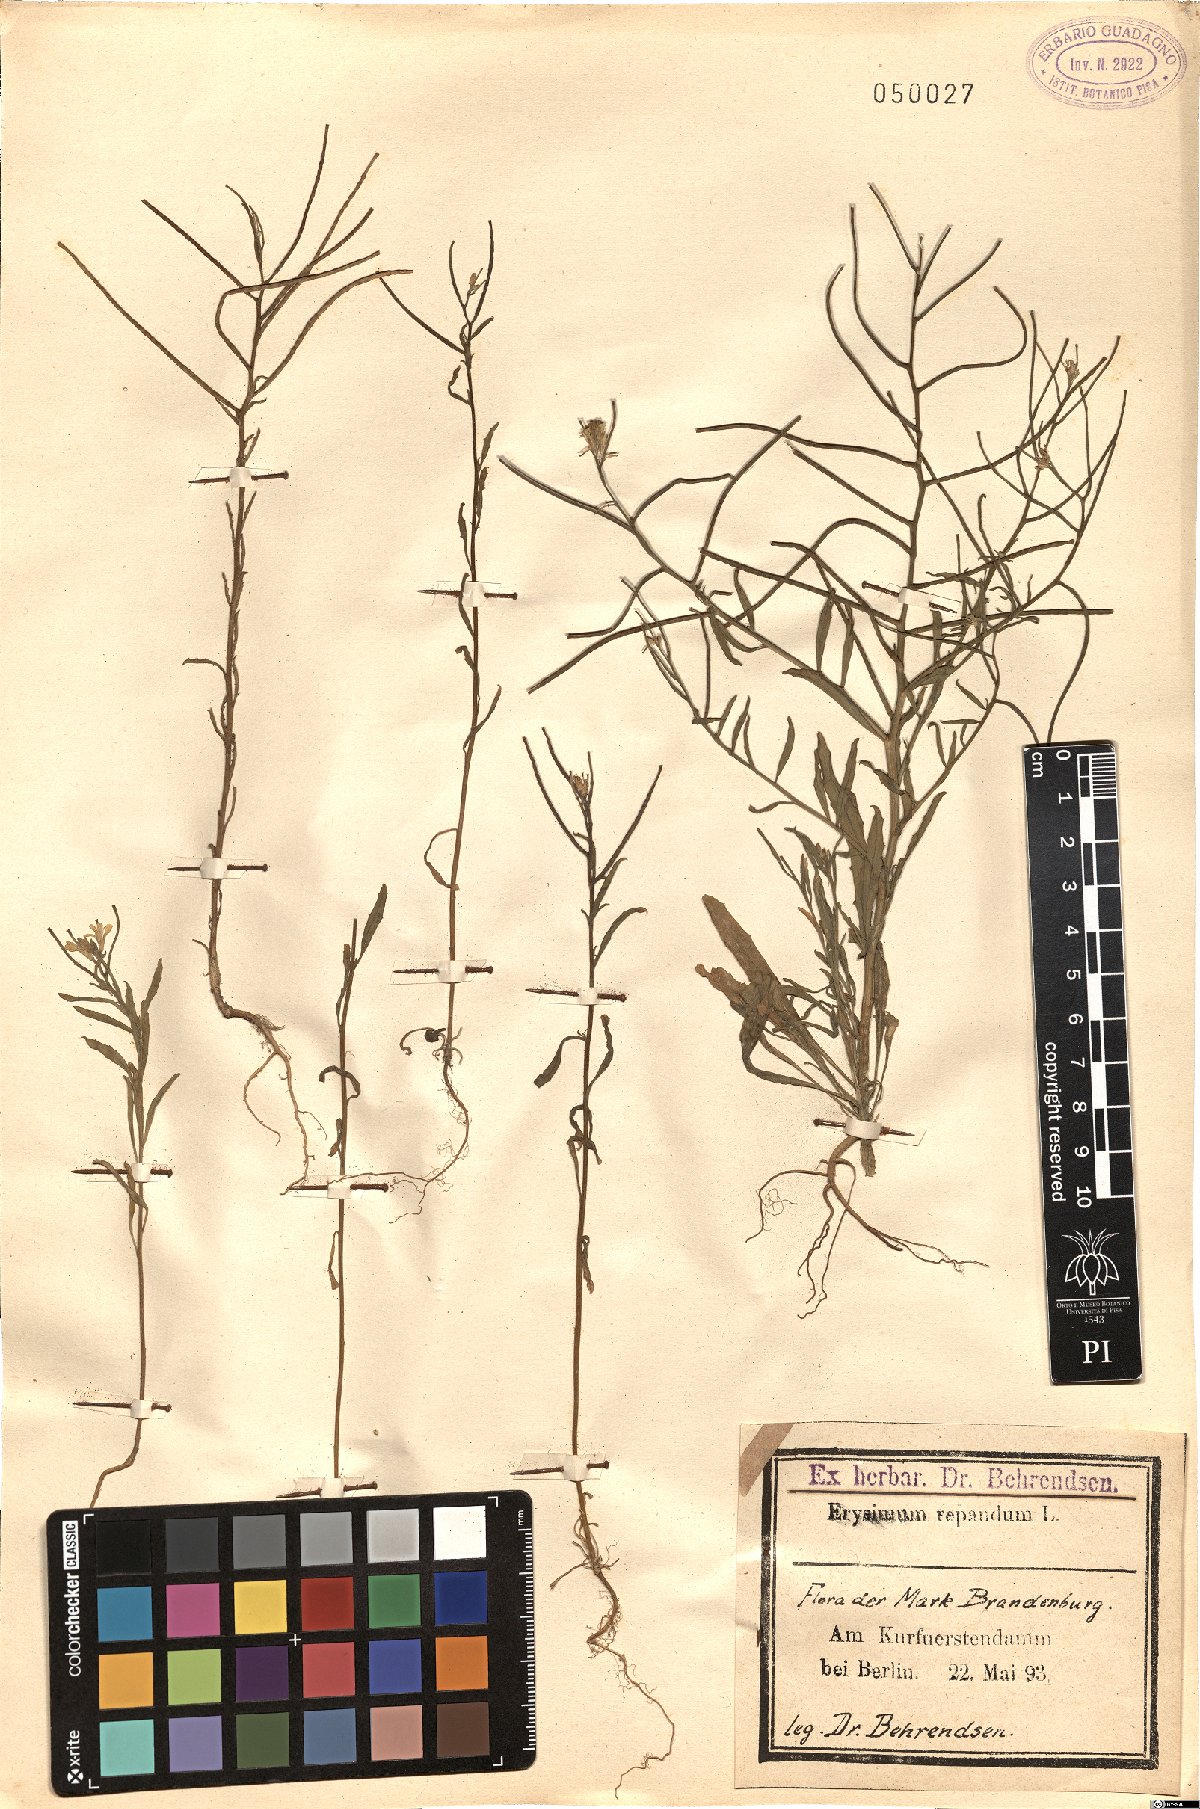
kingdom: Plantae
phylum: Tracheophyta
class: Magnoliopsida
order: Brassicales
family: Brassicaceae
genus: Erysimum
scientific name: Erysimum repandum
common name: Spreading wallflower
